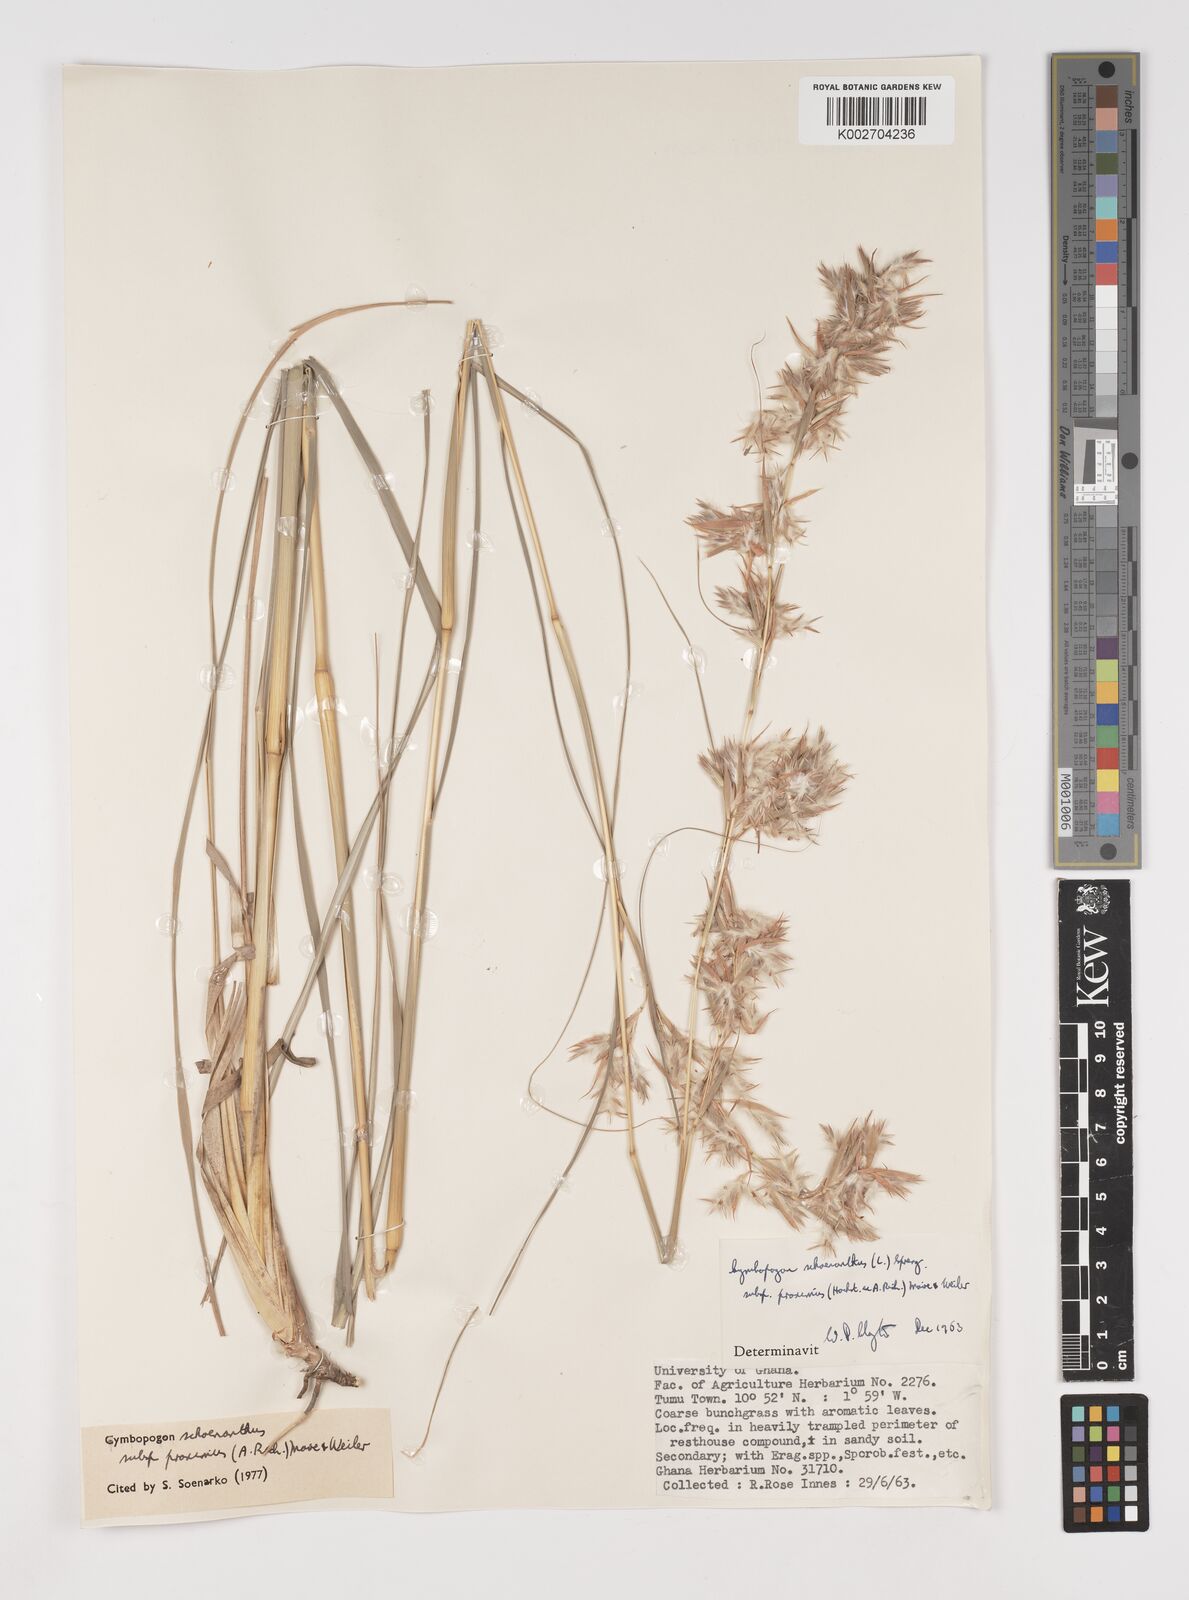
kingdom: Plantae
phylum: Tracheophyta
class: Liliopsida
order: Poales
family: Poaceae
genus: Cymbopogon
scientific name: Cymbopogon schoenanthus
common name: Geranium grass
